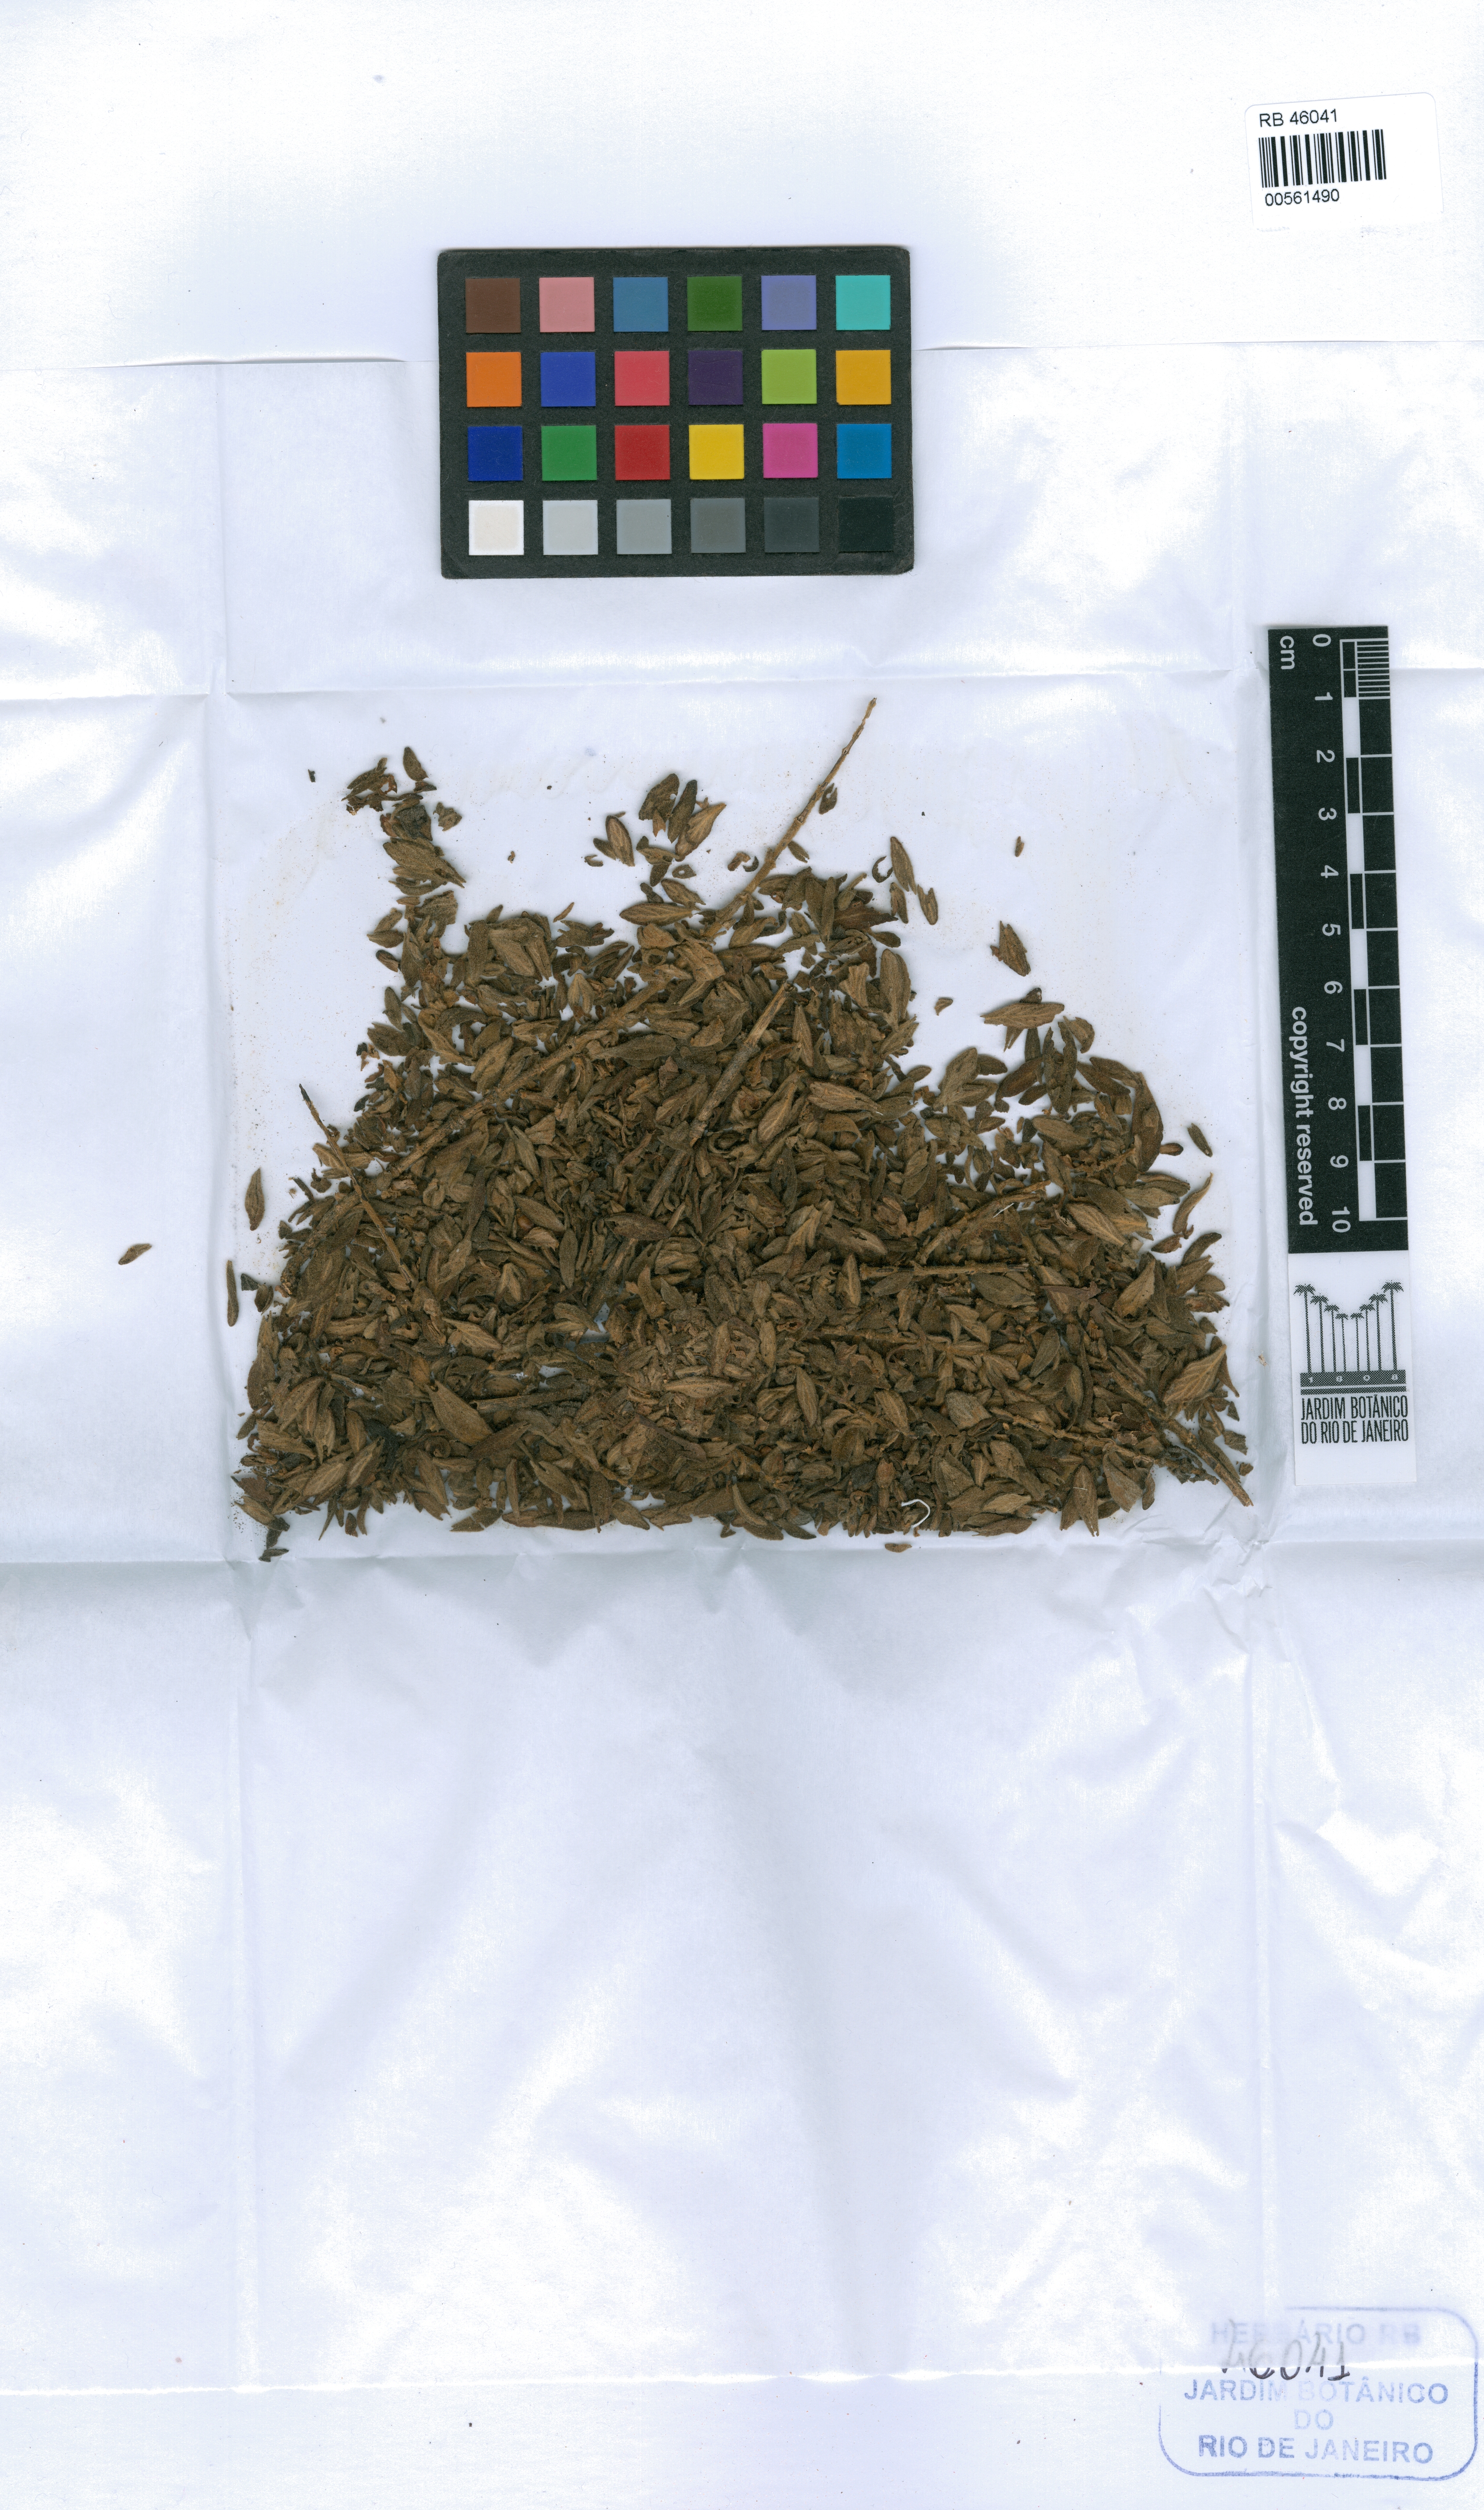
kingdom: Plantae
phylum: Tracheophyta
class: Magnoliopsida
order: Lamiales
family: Plantaginaceae
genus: Matourea
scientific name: Matourea caparaoensis
